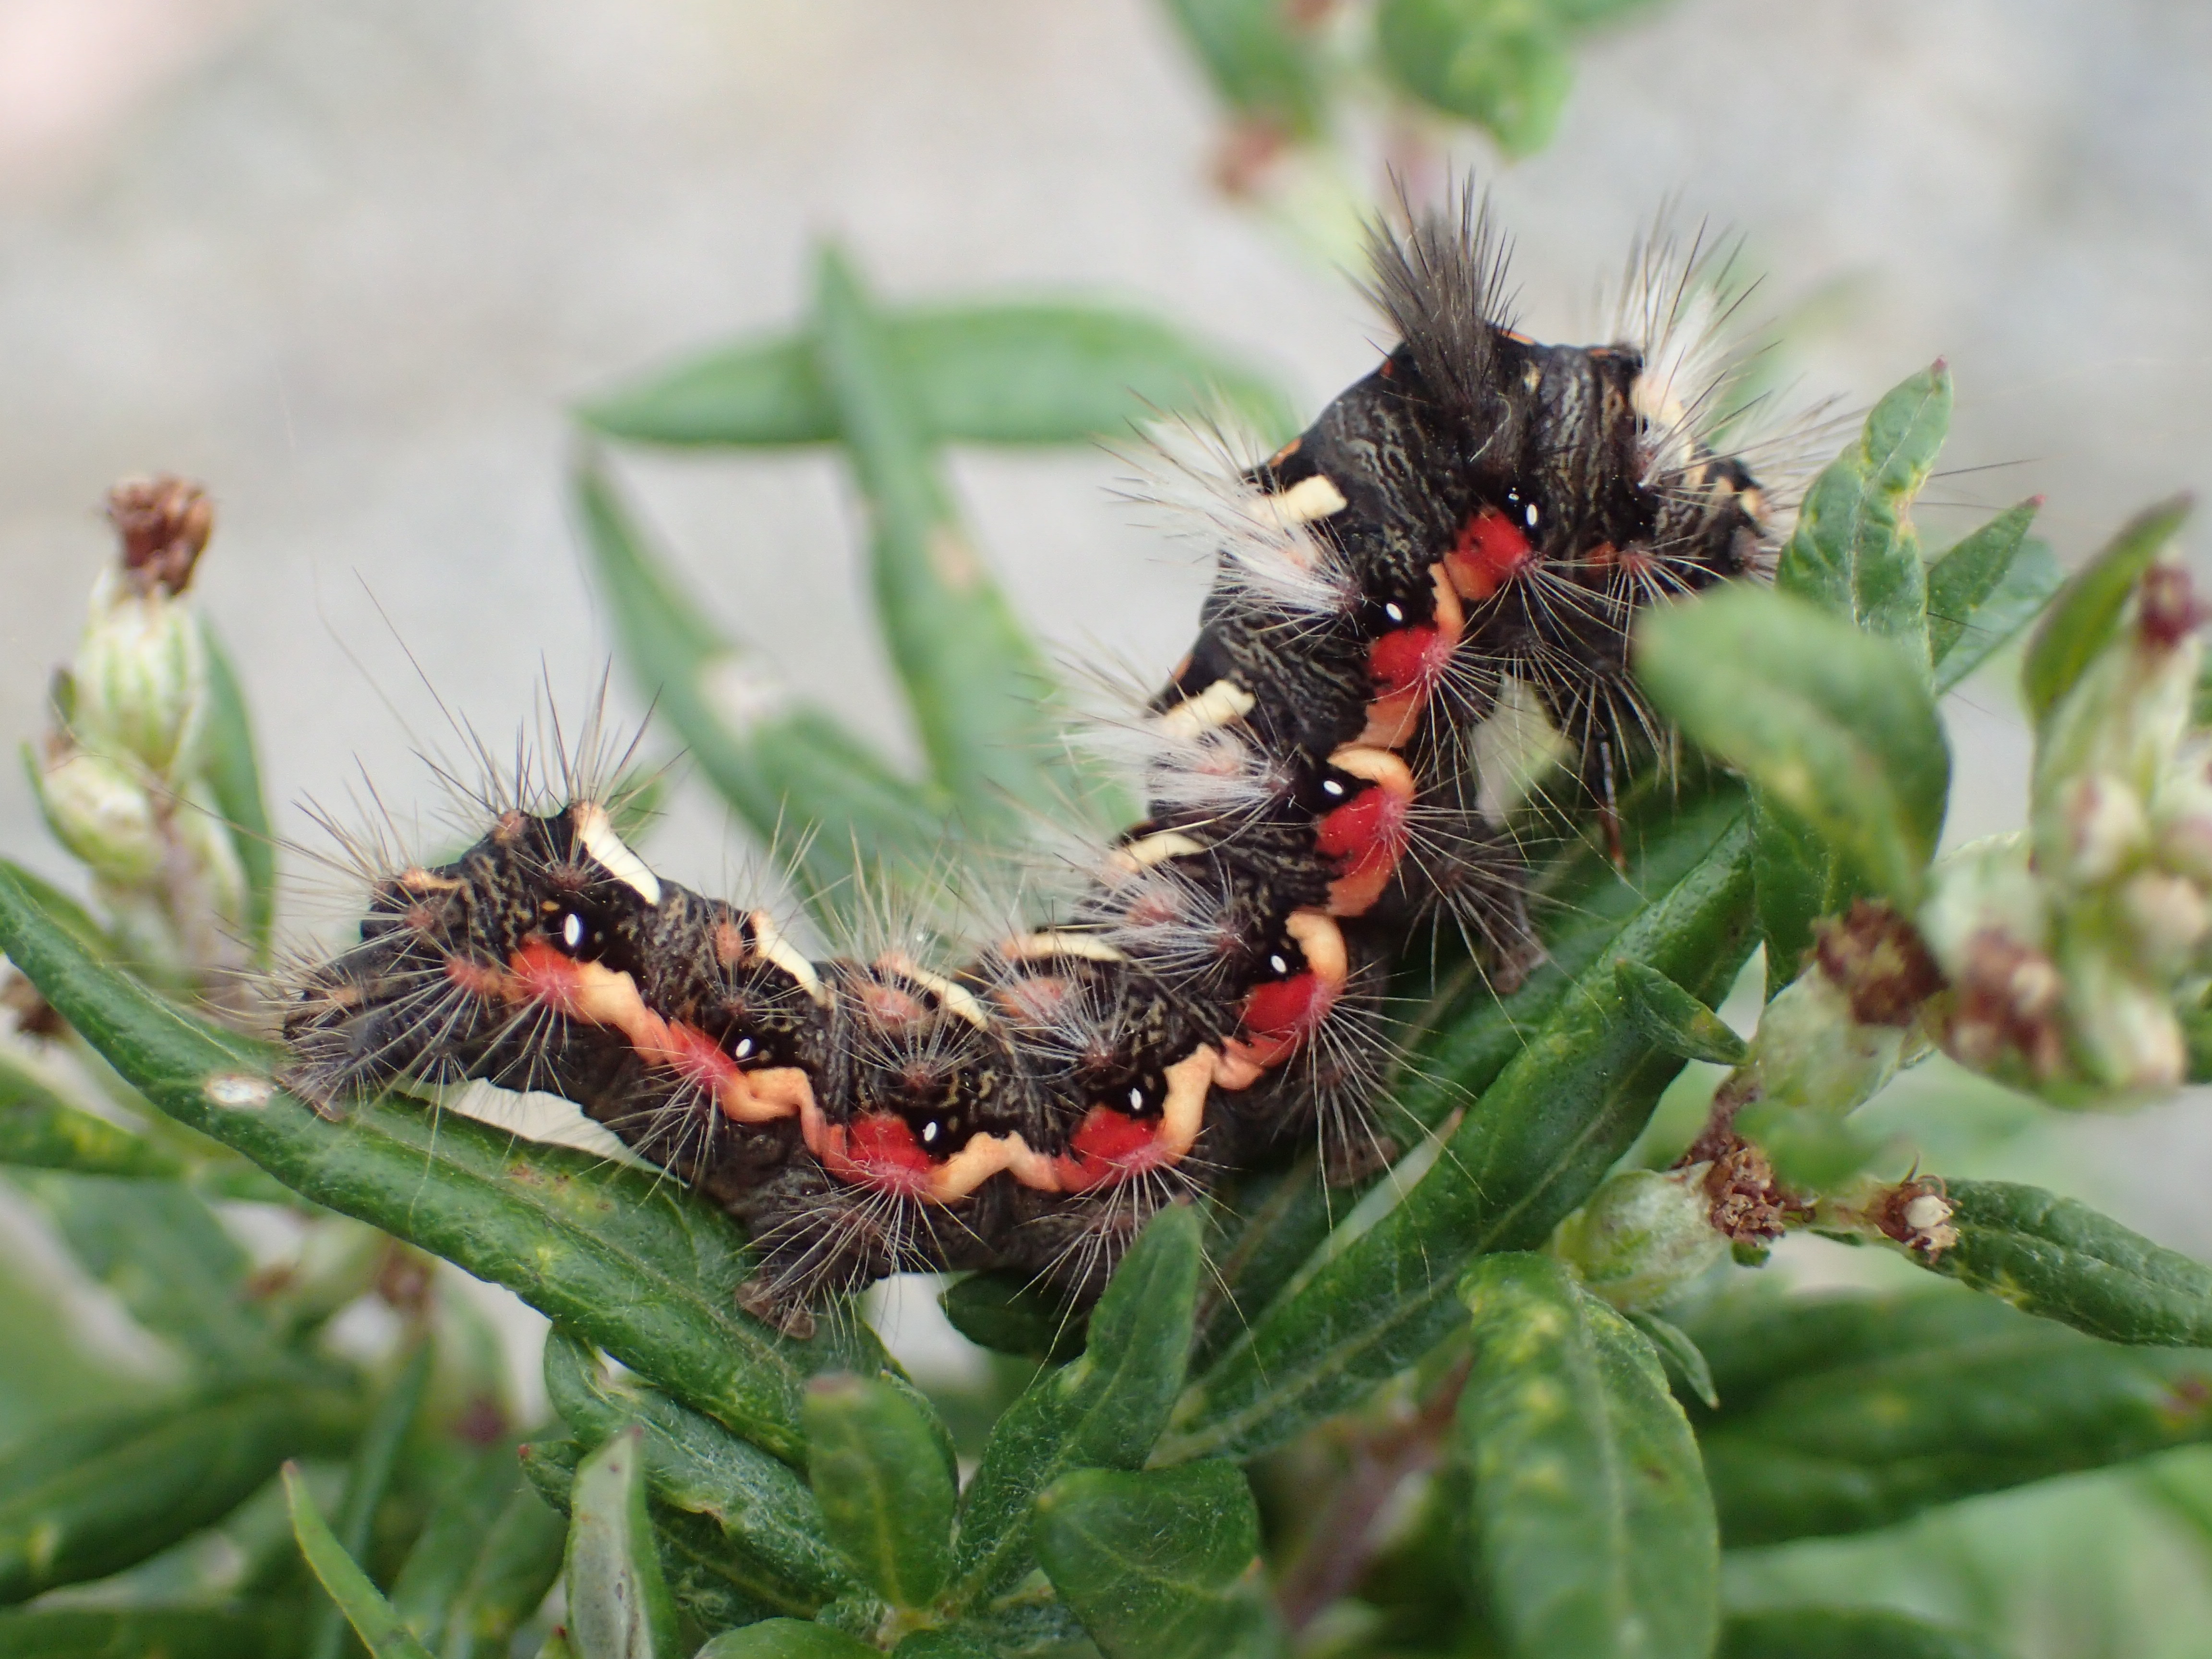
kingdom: Animalia
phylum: Arthropoda
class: Insecta
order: Lepidoptera
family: Noctuidae
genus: Acronicta
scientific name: Acronicta rumicis
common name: Knot grass
